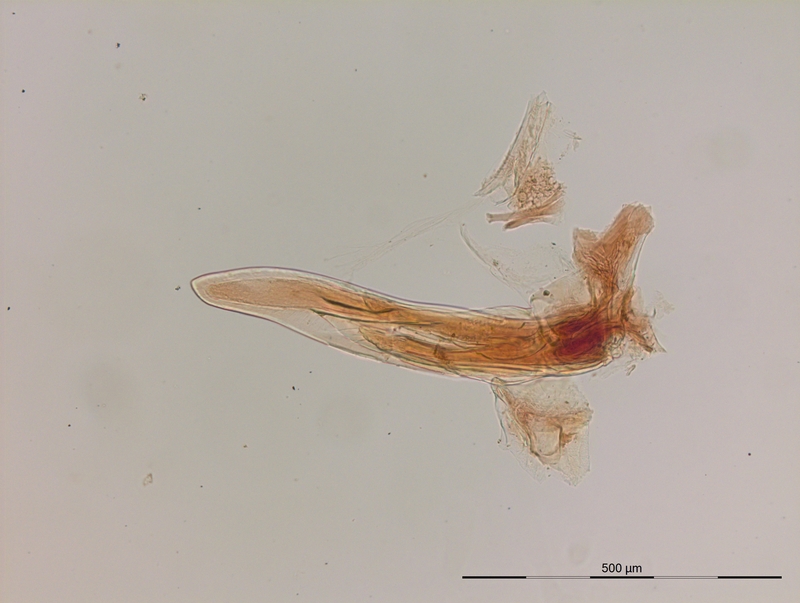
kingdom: Animalia
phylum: Arthropoda
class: Diplopoda
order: Julida
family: Blaniulidae
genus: Blaniulus
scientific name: Blaniulus guttulatus
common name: Spotted snake millipede
